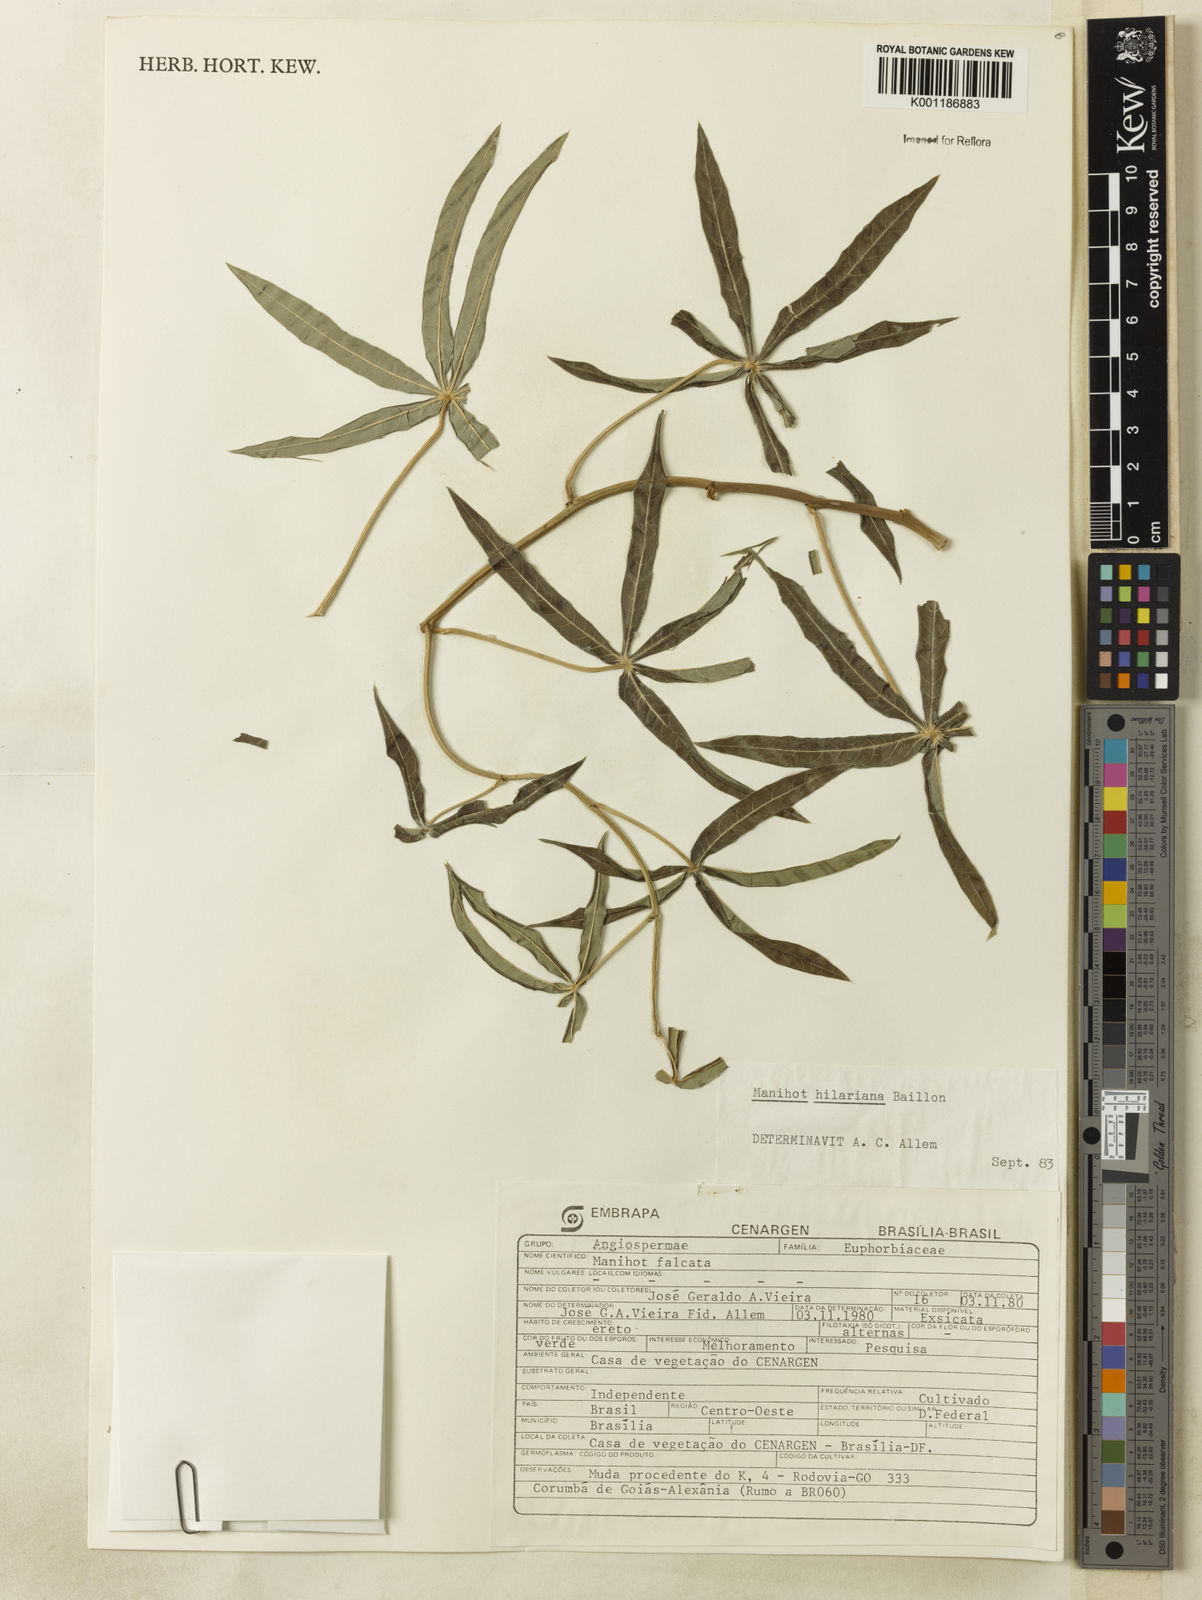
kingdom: Plantae
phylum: Tracheophyta
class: Magnoliopsida
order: Malpighiales
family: Euphorbiaceae
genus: Manihot
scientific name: Manihot hilariana
